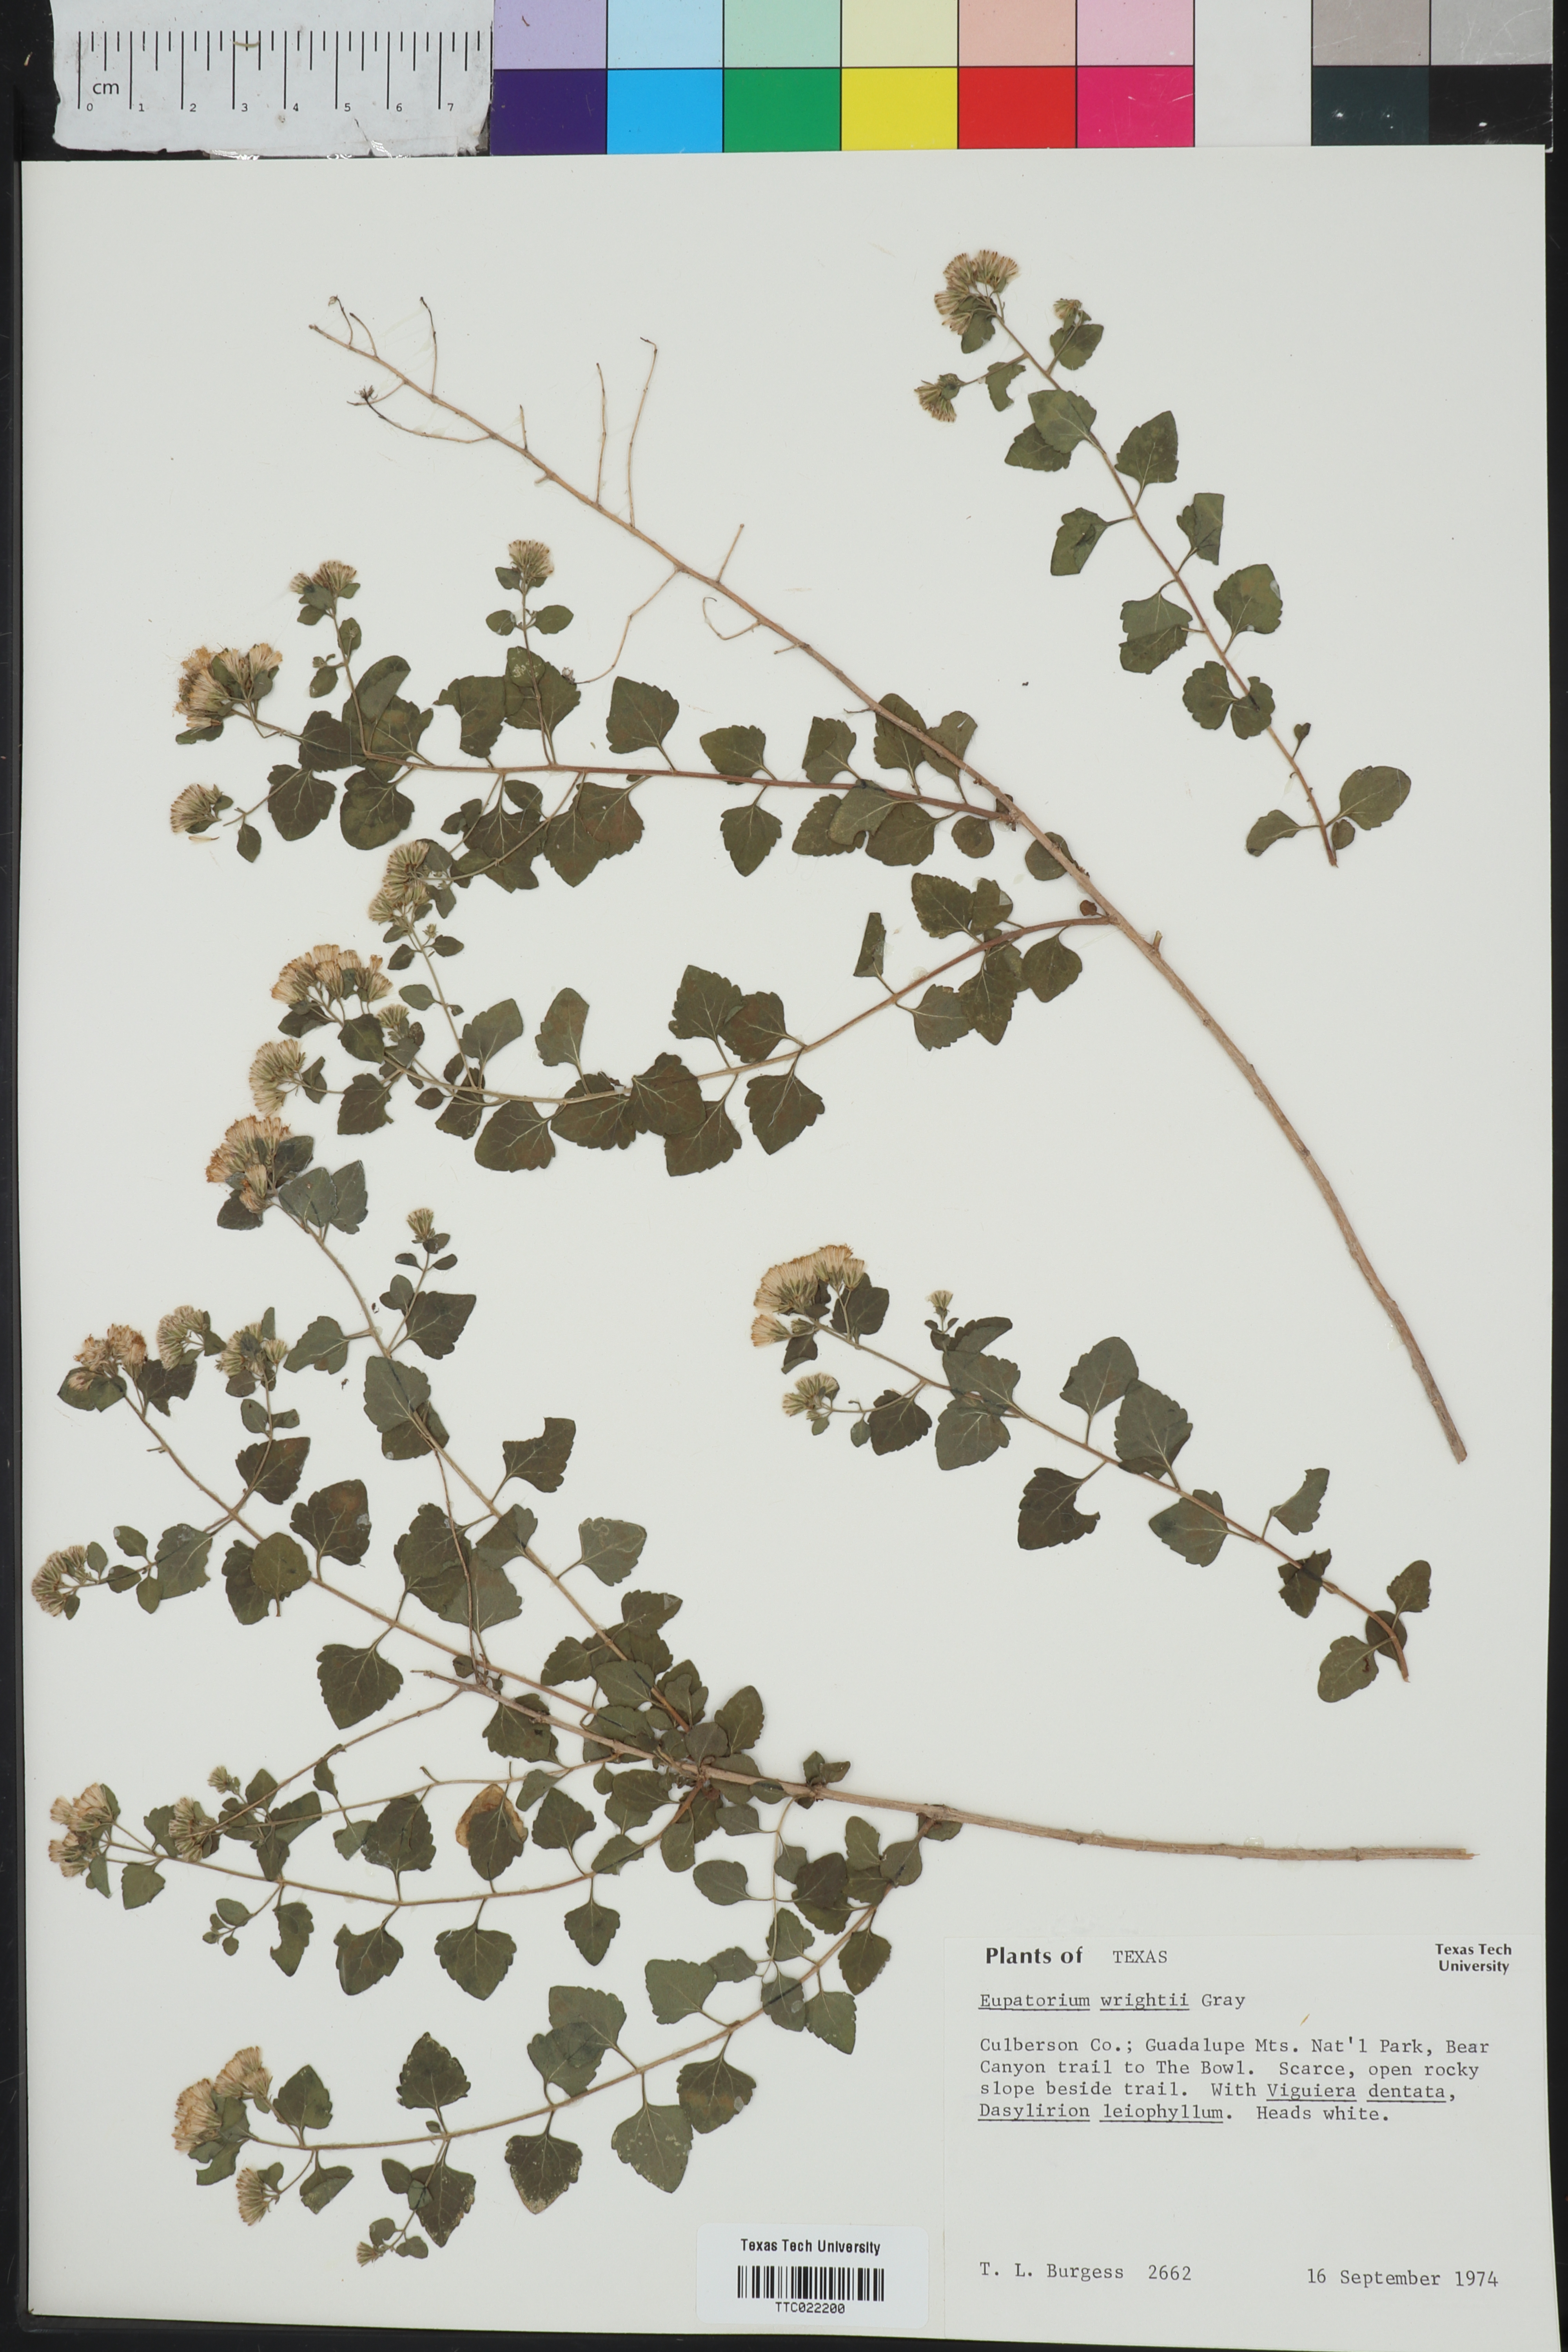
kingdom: Plantae
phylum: Tracheophyta
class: Magnoliopsida
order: Asterales
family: Asteraceae
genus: Ageratina
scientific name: Ageratina wrightii
